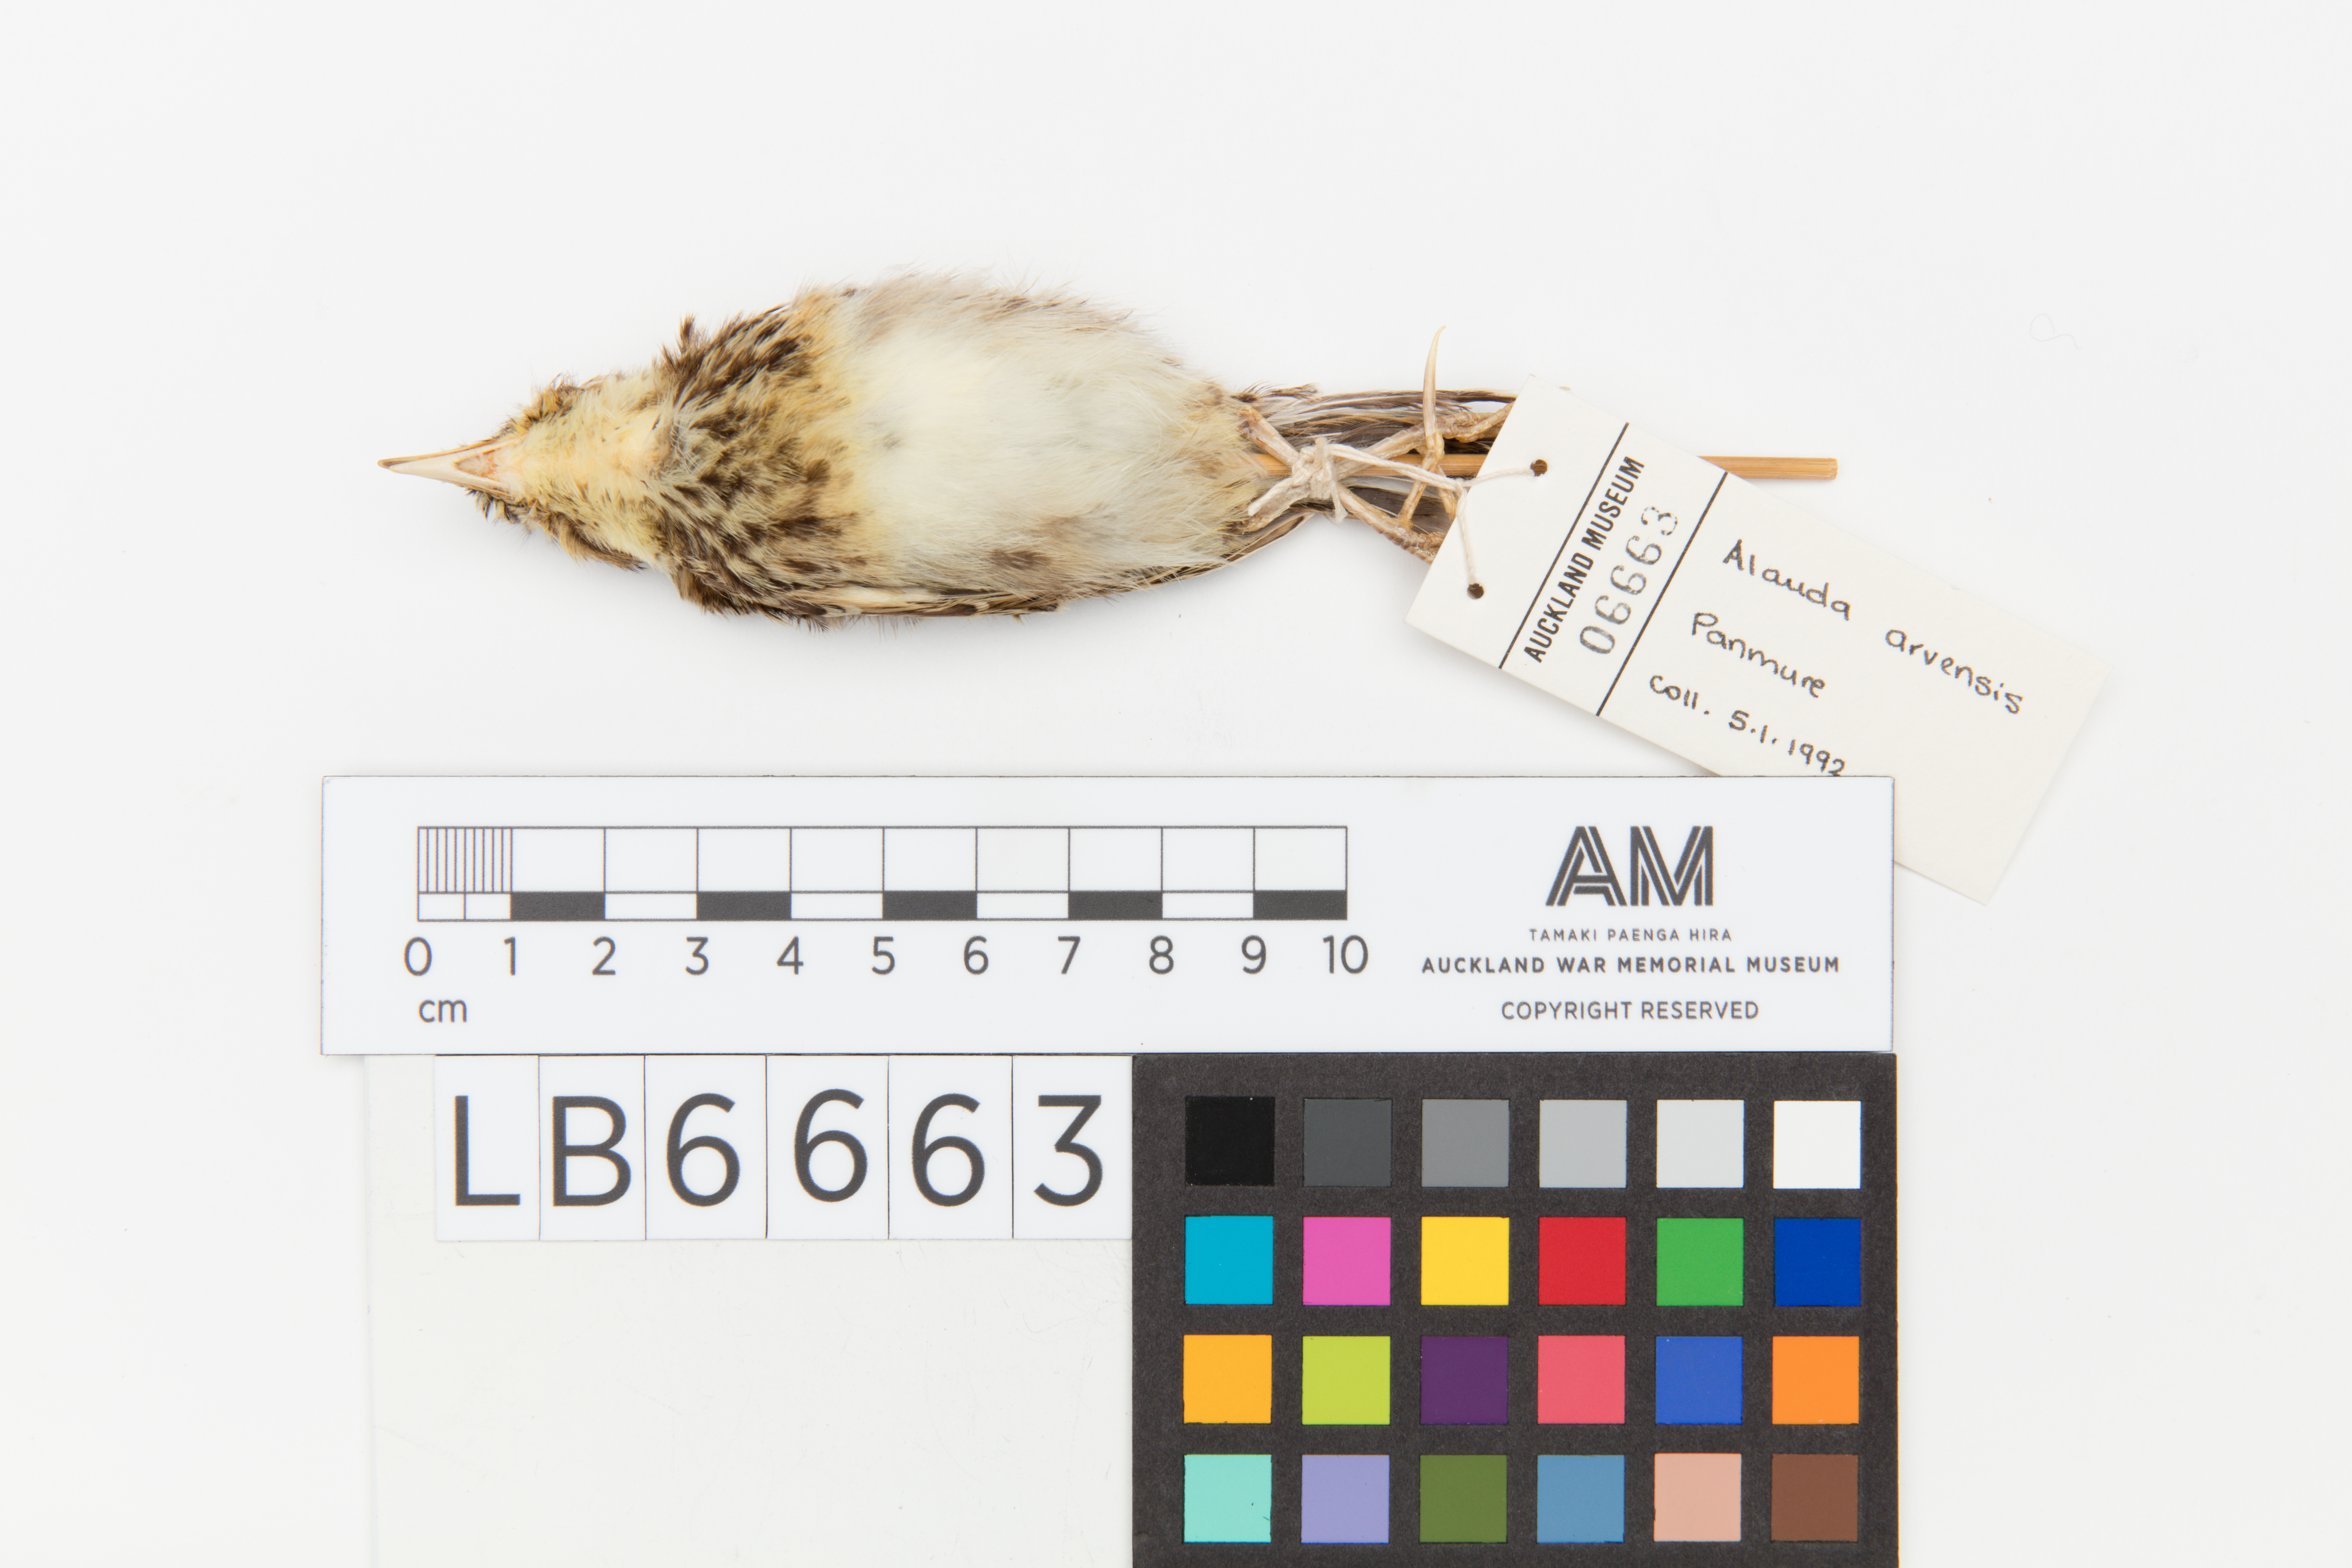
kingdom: Animalia
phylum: Chordata
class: Aves
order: Passeriformes
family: Alaudidae
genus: Alauda
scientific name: Alauda arvensis
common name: Eurasian skylark
